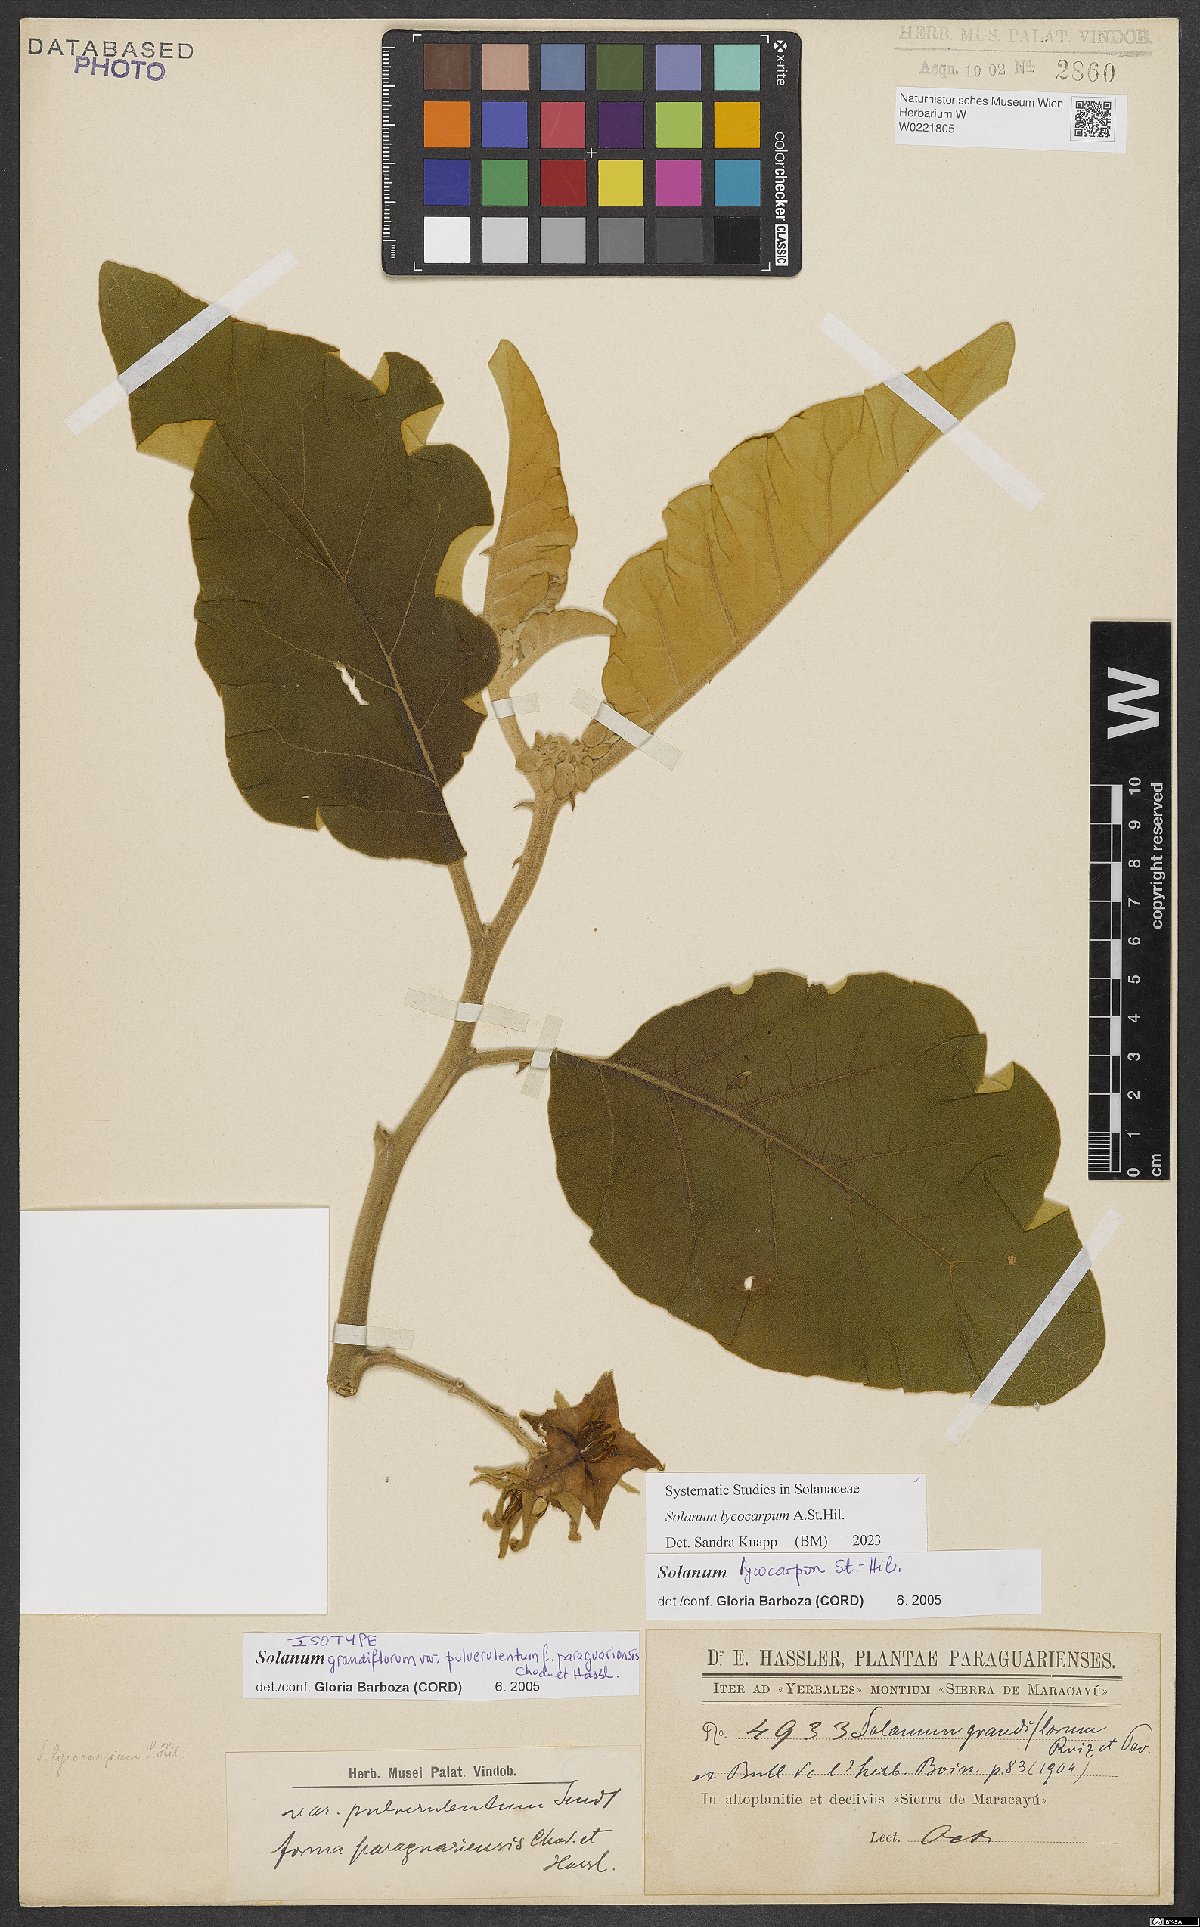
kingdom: Plantae
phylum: Tracheophyta
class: Magnoliopsida
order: Solanales
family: Solanaceae
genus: Solanum
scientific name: Solanum lycocarpum
